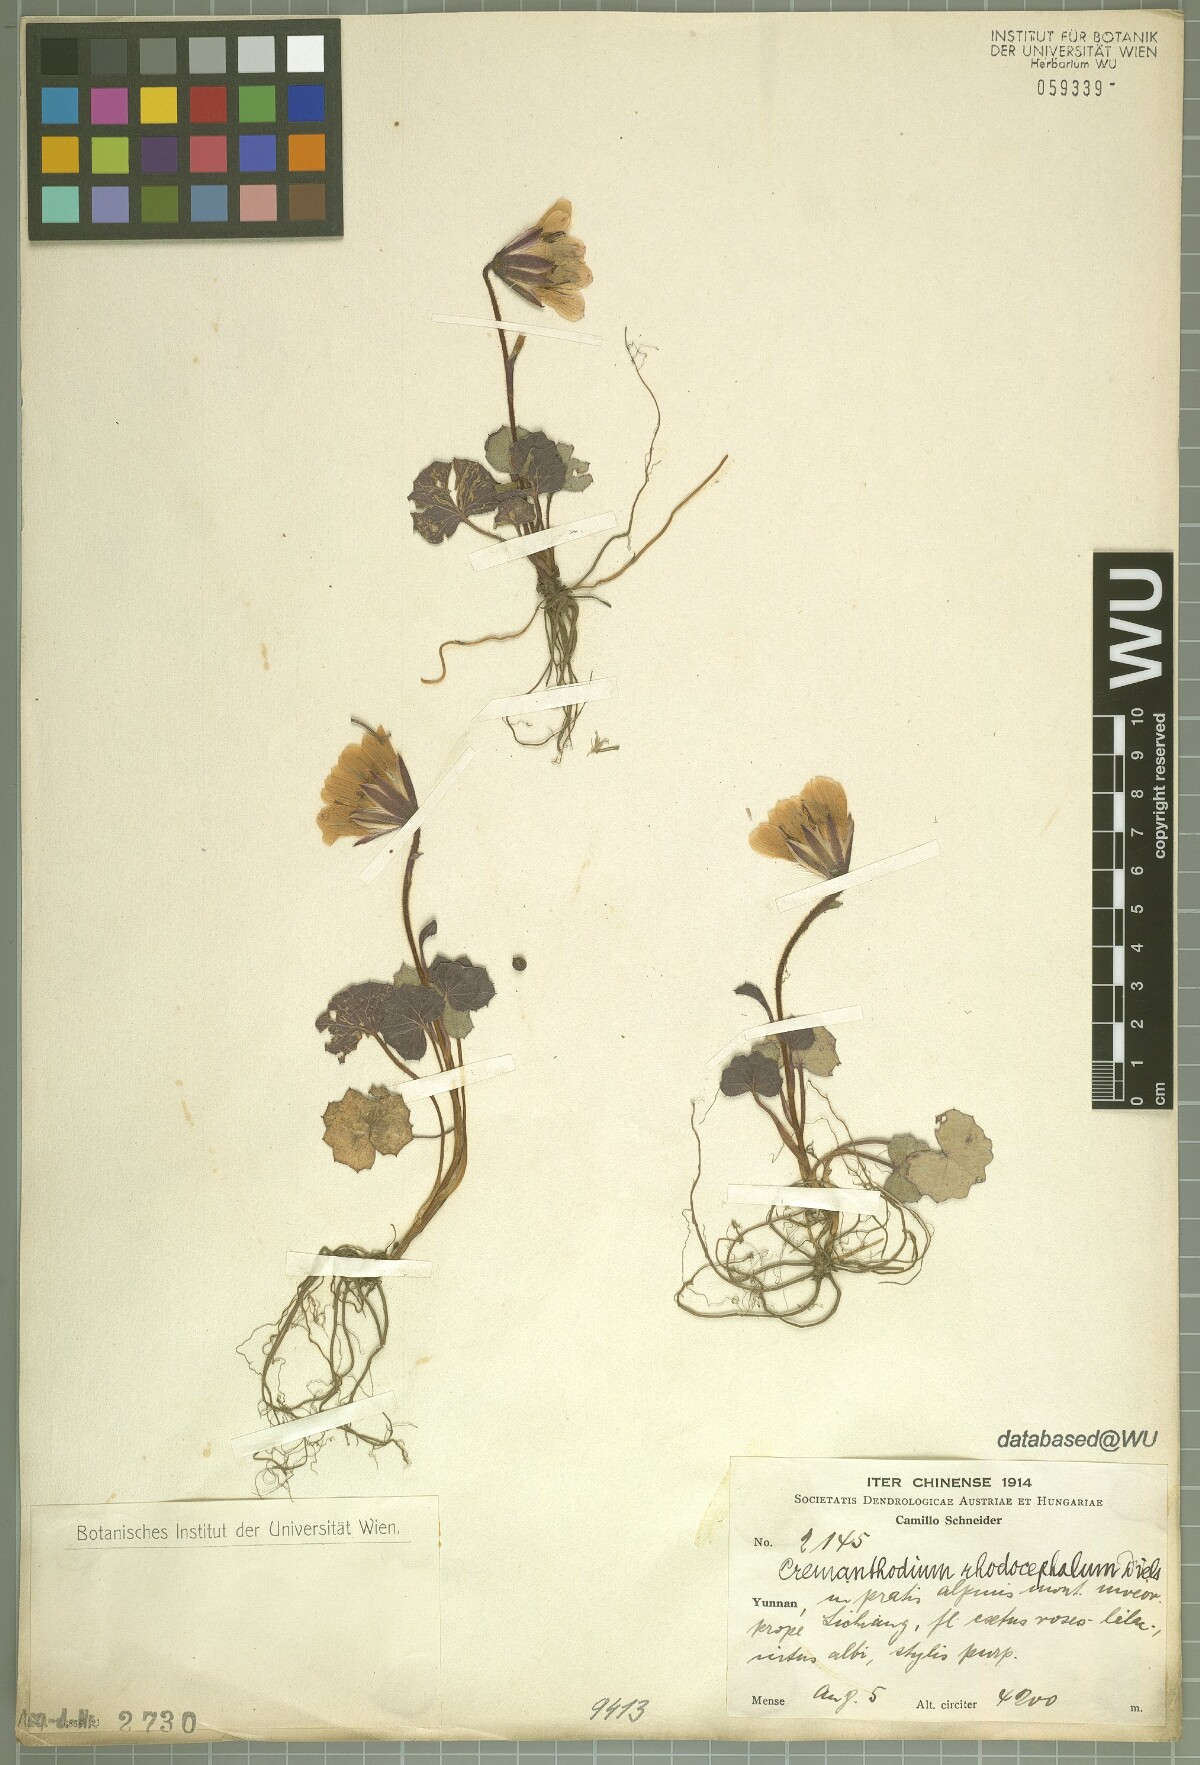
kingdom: Plantae
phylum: Tracheophyta
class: Magnoliopsida
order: Asterales
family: Asteraceae
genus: Cremanthodium
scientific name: Cremanthodium palmatum
